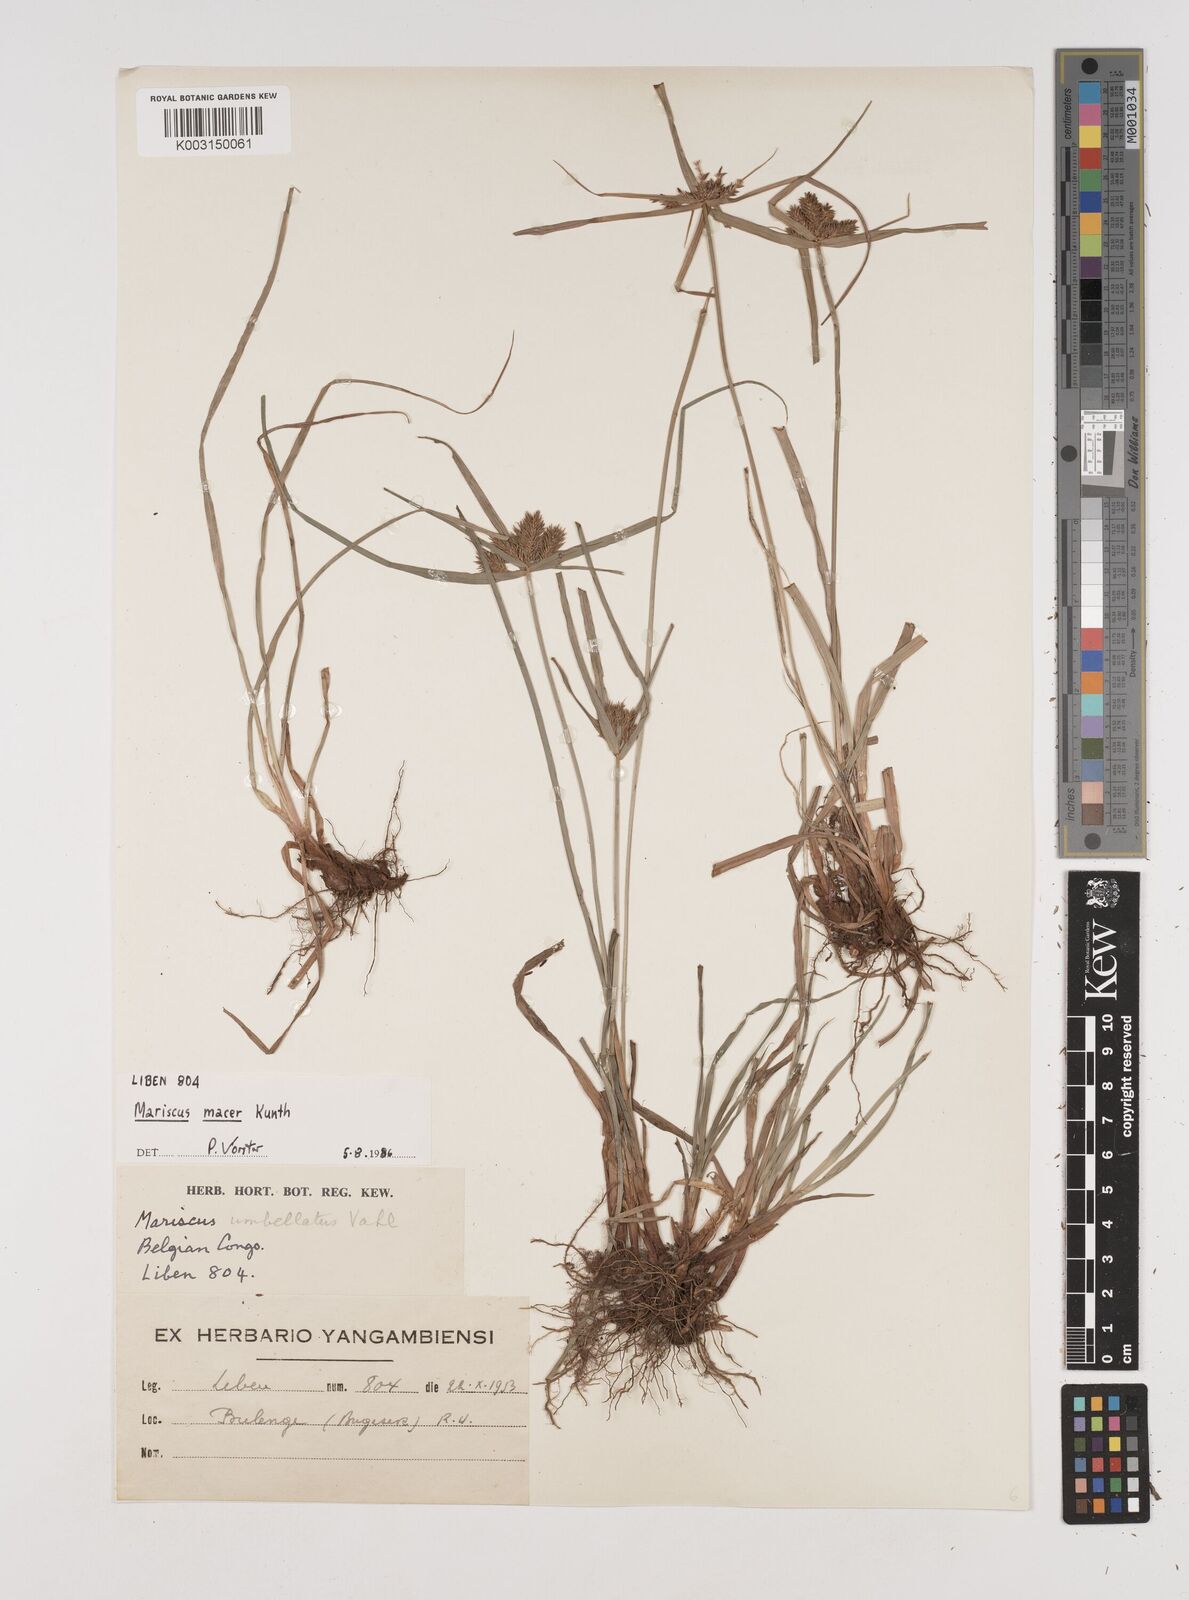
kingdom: Plantae
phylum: Tracheophyta
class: Liliopsida
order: Poales
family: Cyperaceae
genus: Cyperus
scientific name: Cyperus macrocarpus
